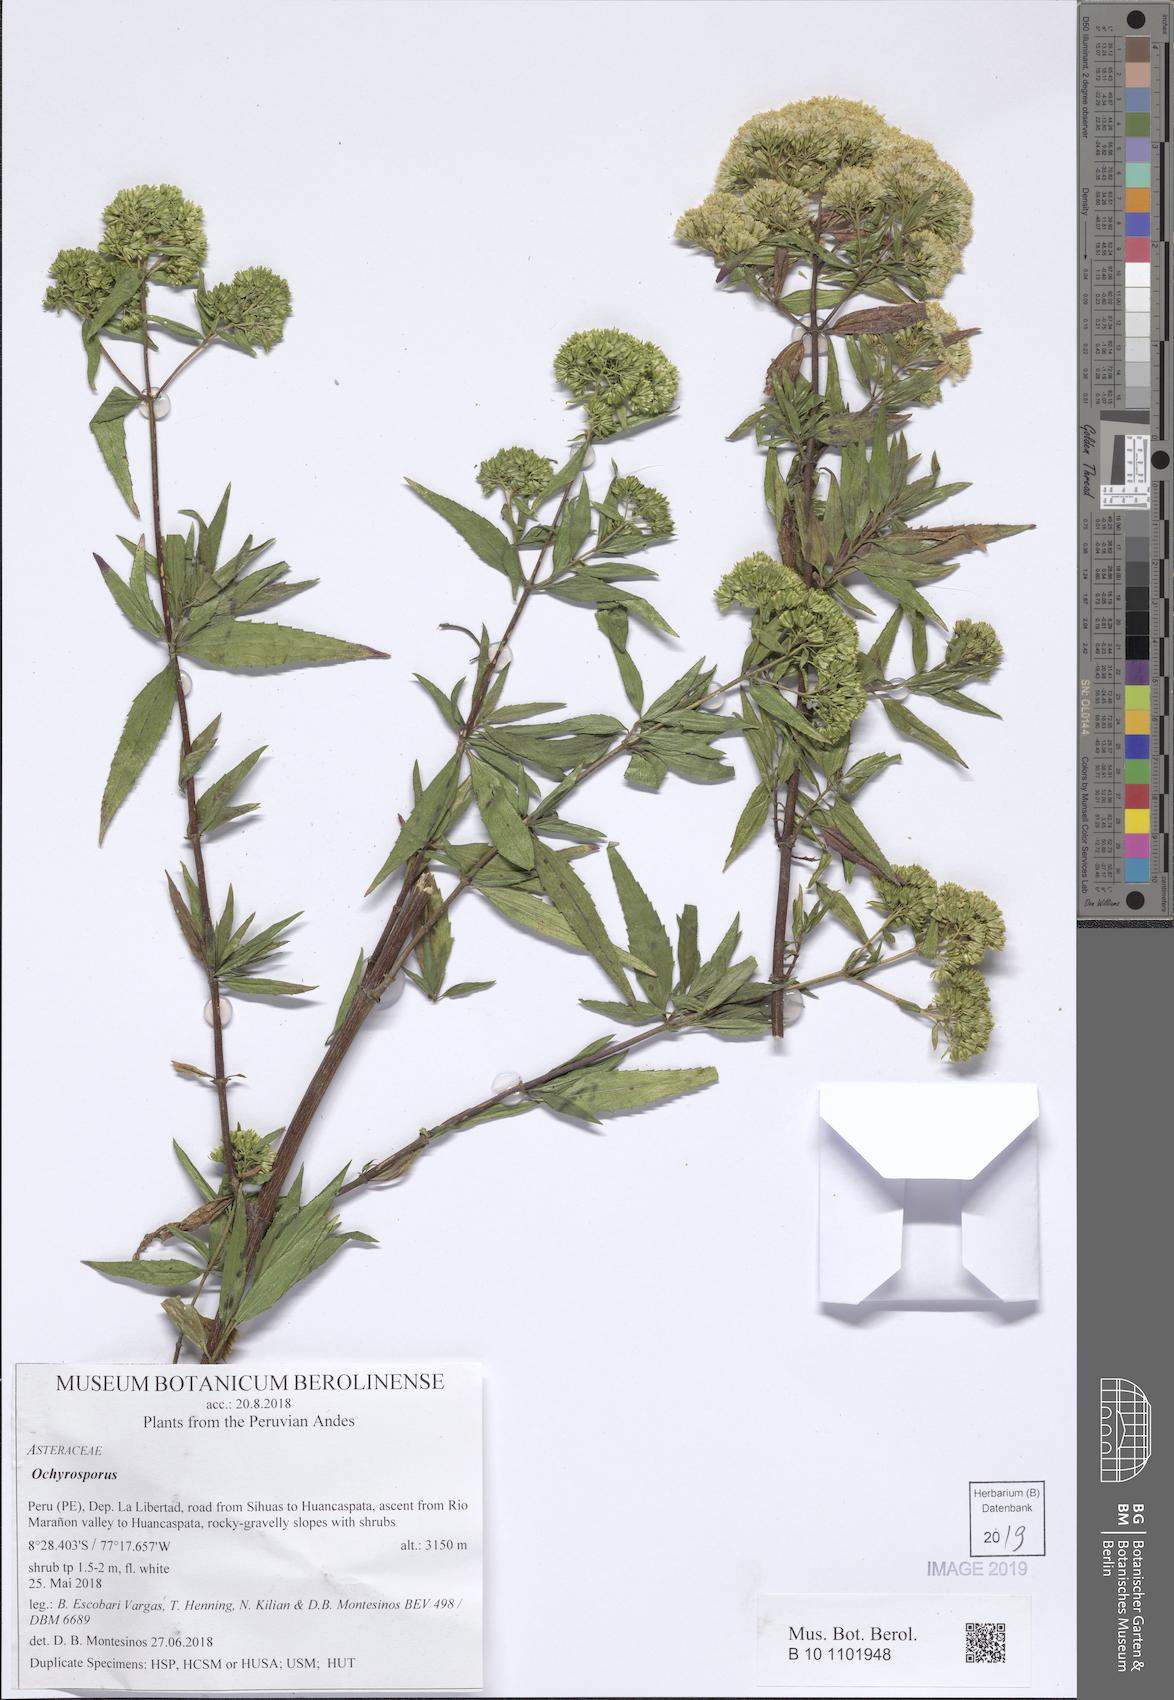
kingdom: Plantae
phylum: Tracheophyta
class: Magnoliopsida
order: Asterales
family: Asteraceae
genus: Ophryosporus
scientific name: Ophryosporus peruvianus
